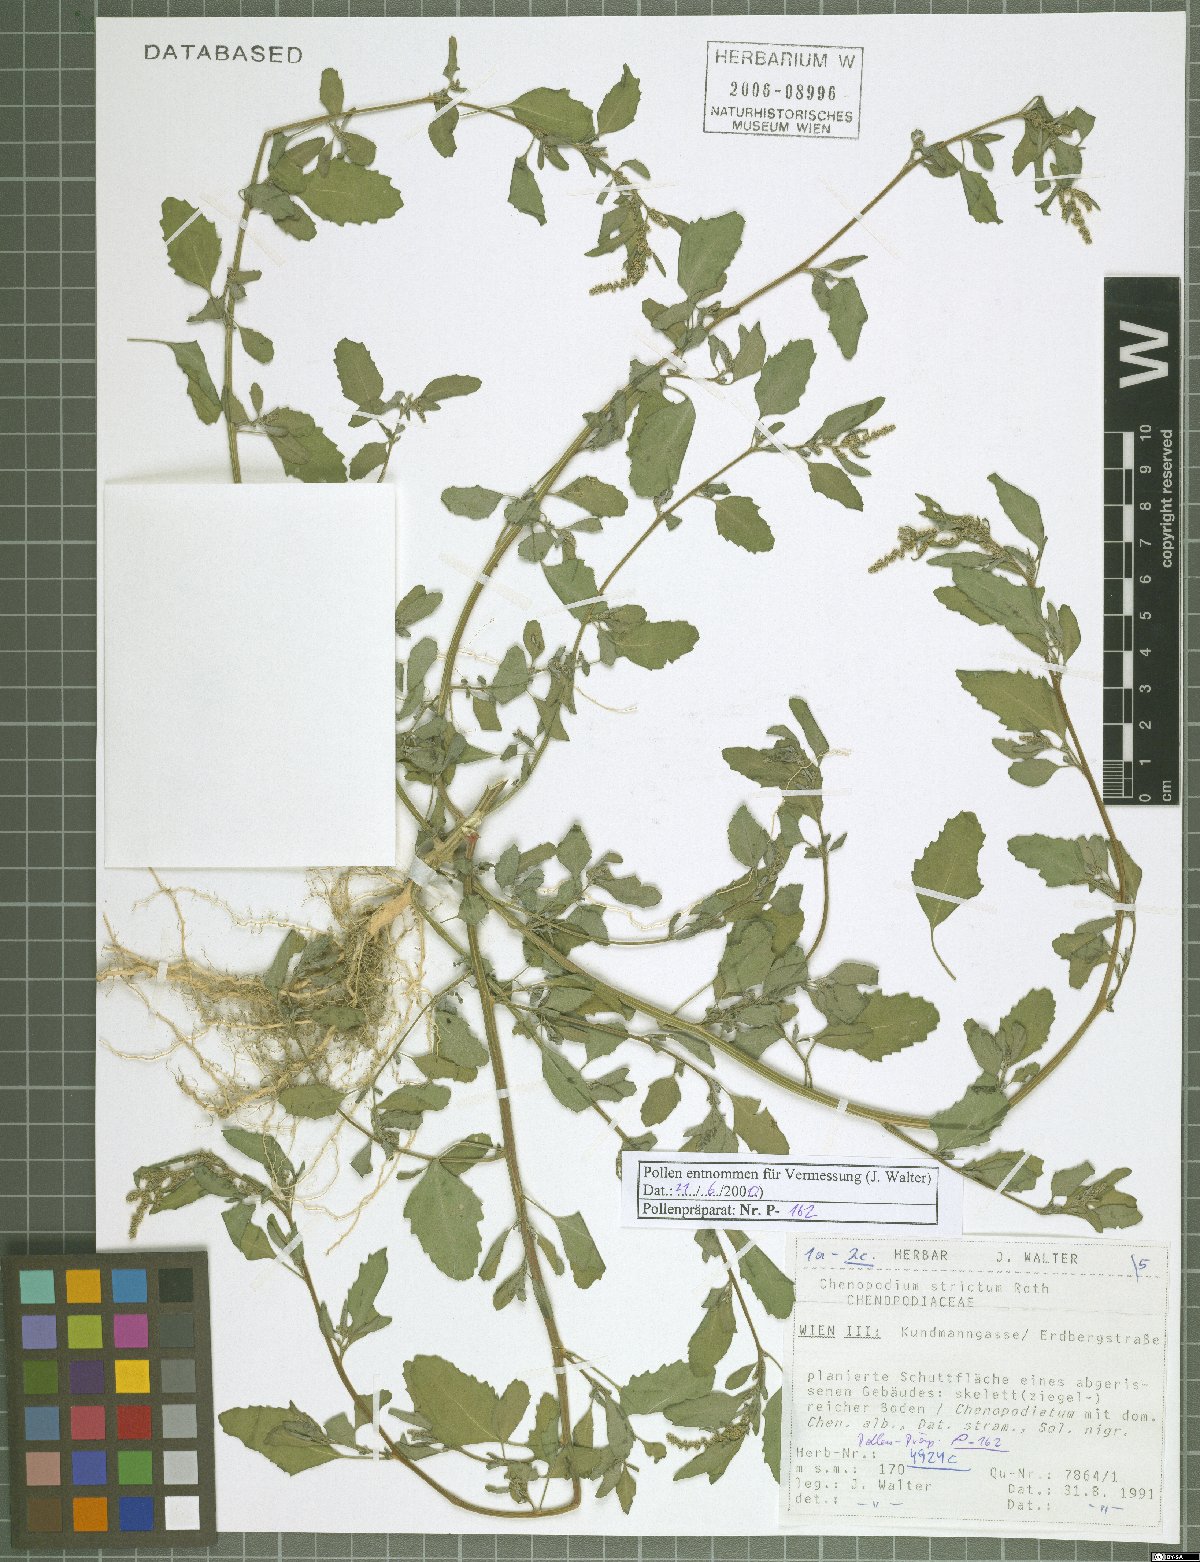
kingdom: Plantae
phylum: Tracheophyta
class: Magnoliopsida
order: Caryophyllales
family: Amaranthaceae
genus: Chenopodium
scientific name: Chenopodium album
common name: Fat-hen
